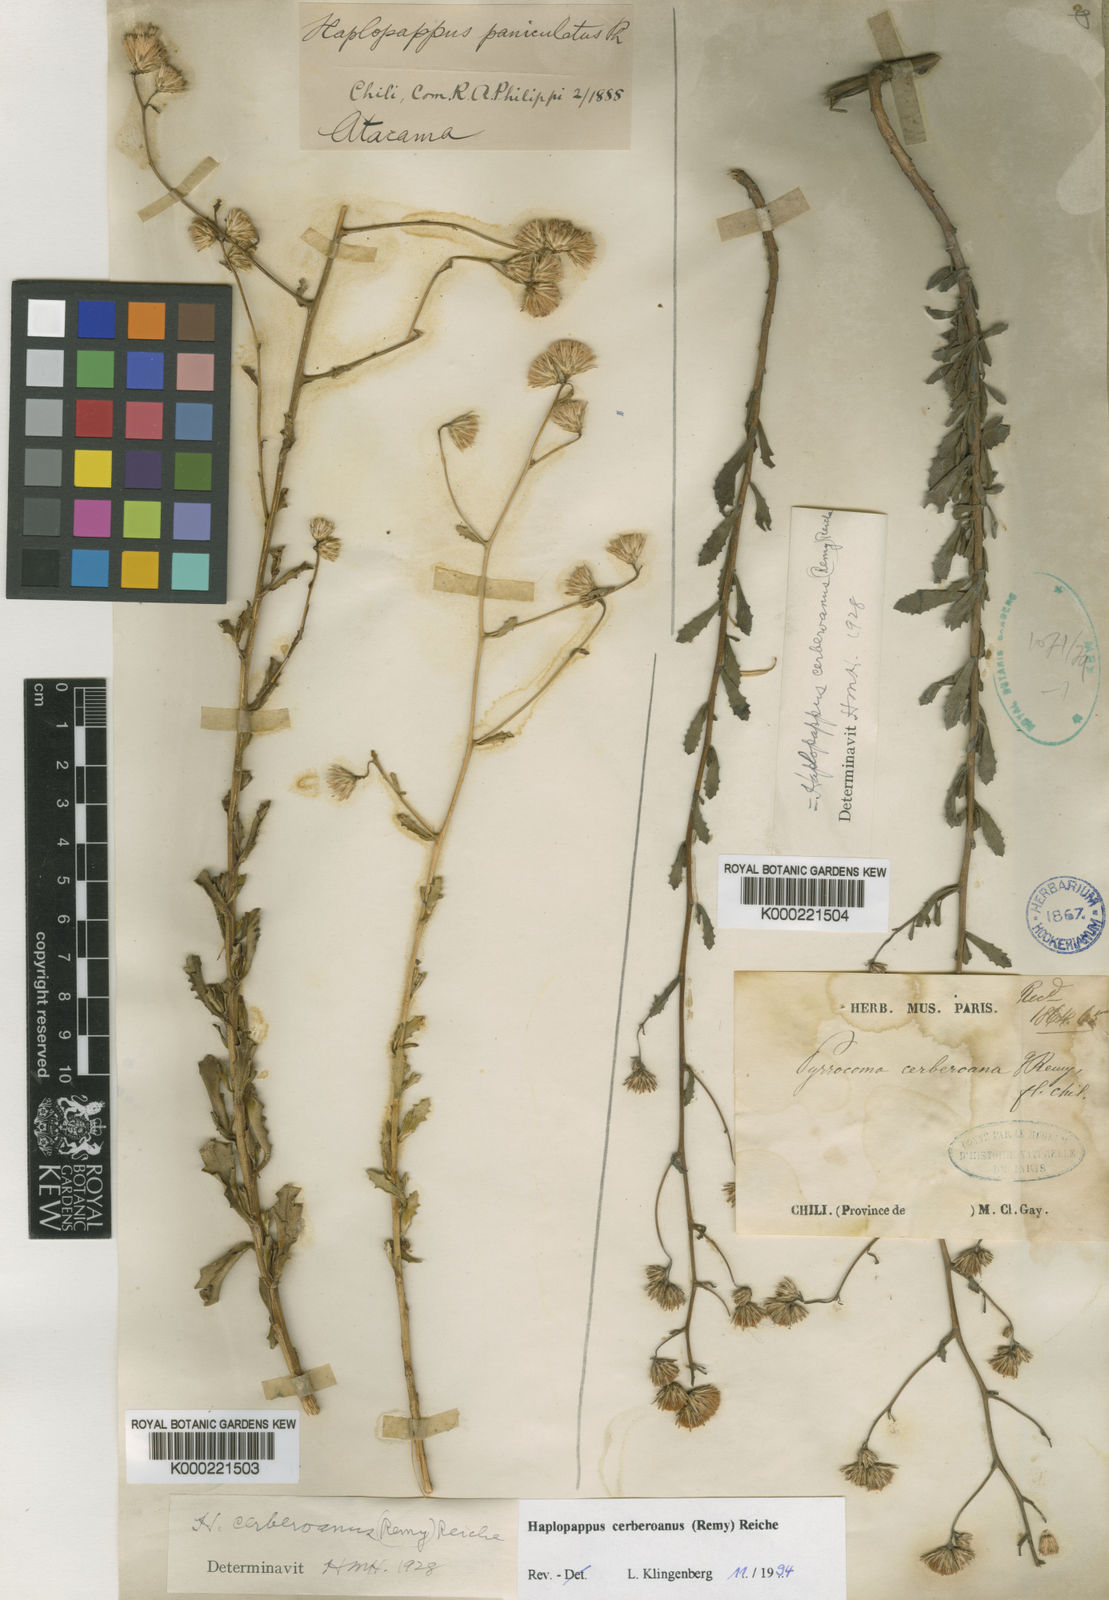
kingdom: Plantae
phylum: Tracheophyta
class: Magnoliopsida
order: Asterales
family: Asteraceae
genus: Haplopappus
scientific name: Haplopappus cerberoanus
